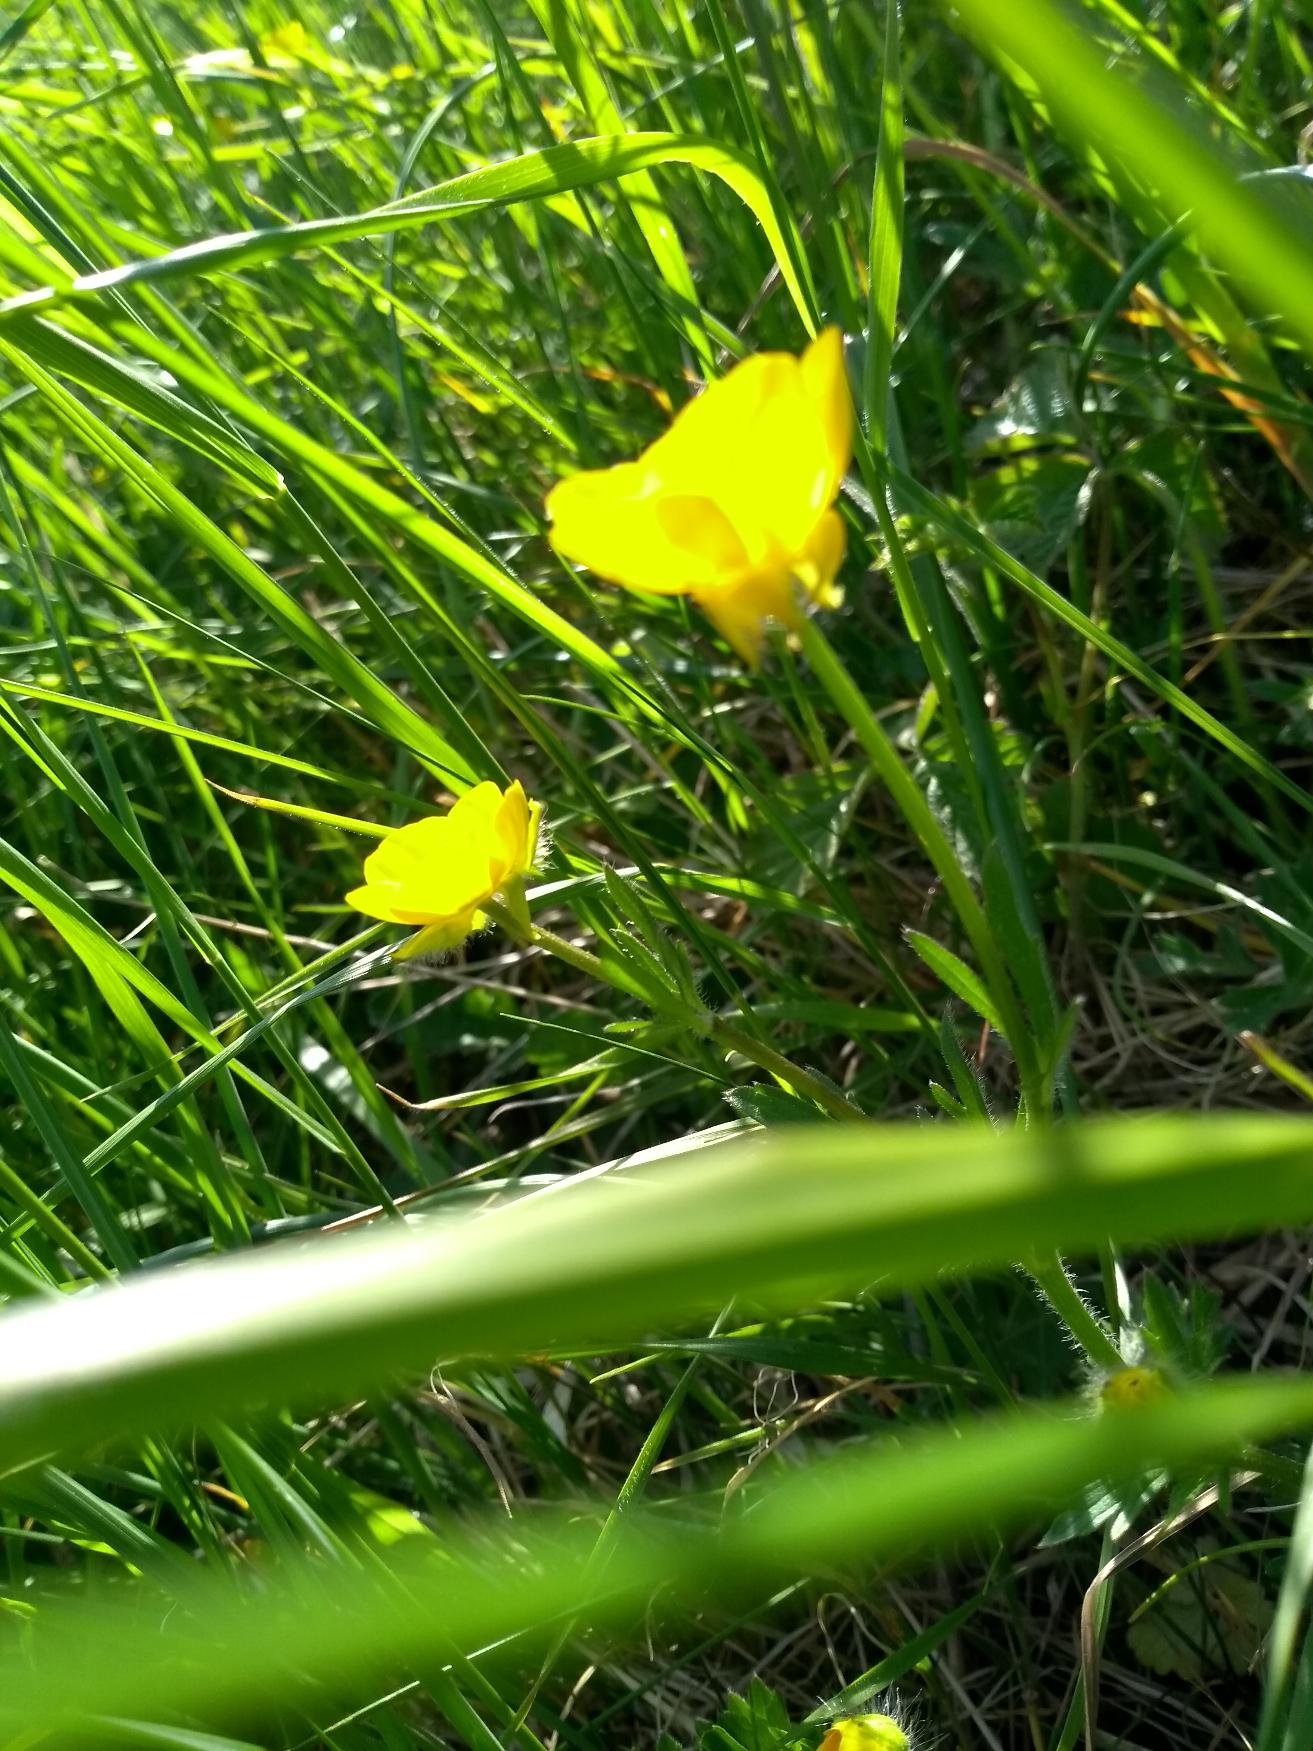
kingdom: Plantae
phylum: Tracheophyta
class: Magnoliopsida
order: Ranunculales
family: Ranunculaceae
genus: Ranunculus
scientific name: Ranunculus bulbosus
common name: Knold-ranunkel
